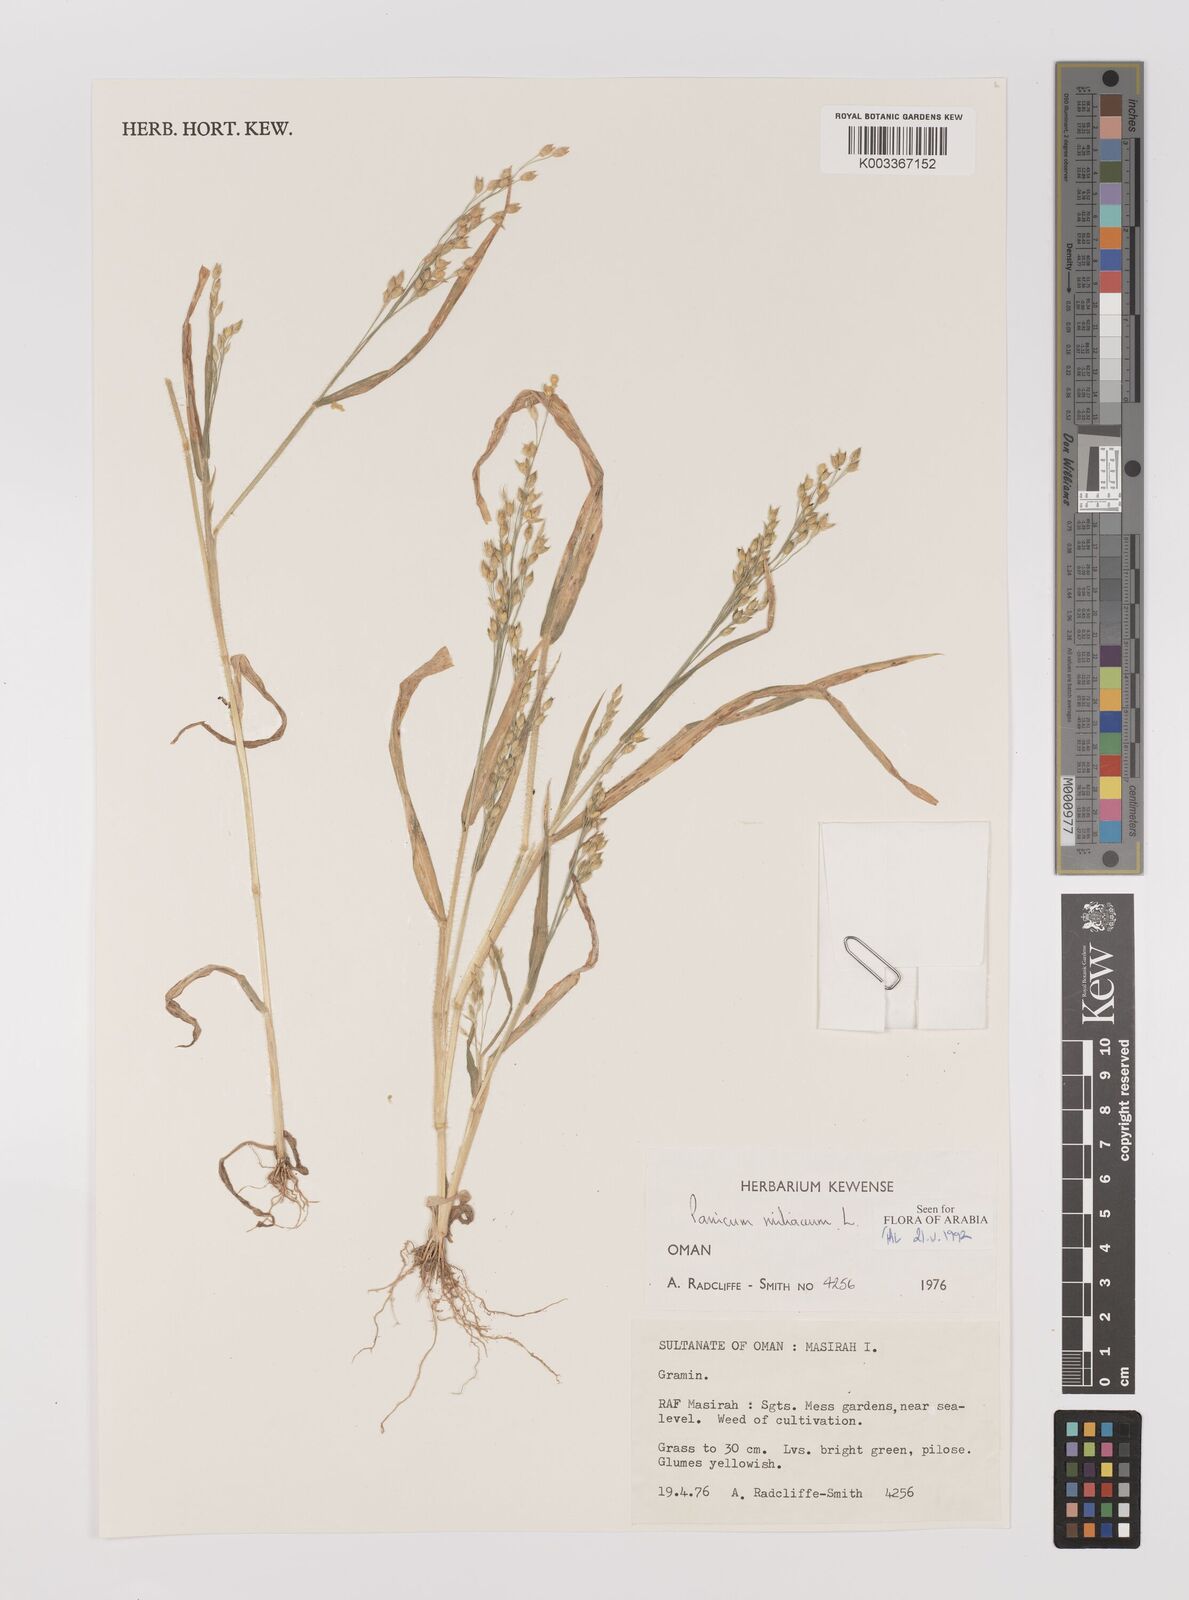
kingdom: Plantae
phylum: Tracheophyta
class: Liliopsida
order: Poales
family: Poaceae
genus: Panicum
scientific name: Panicum miliaceum
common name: Common millet
